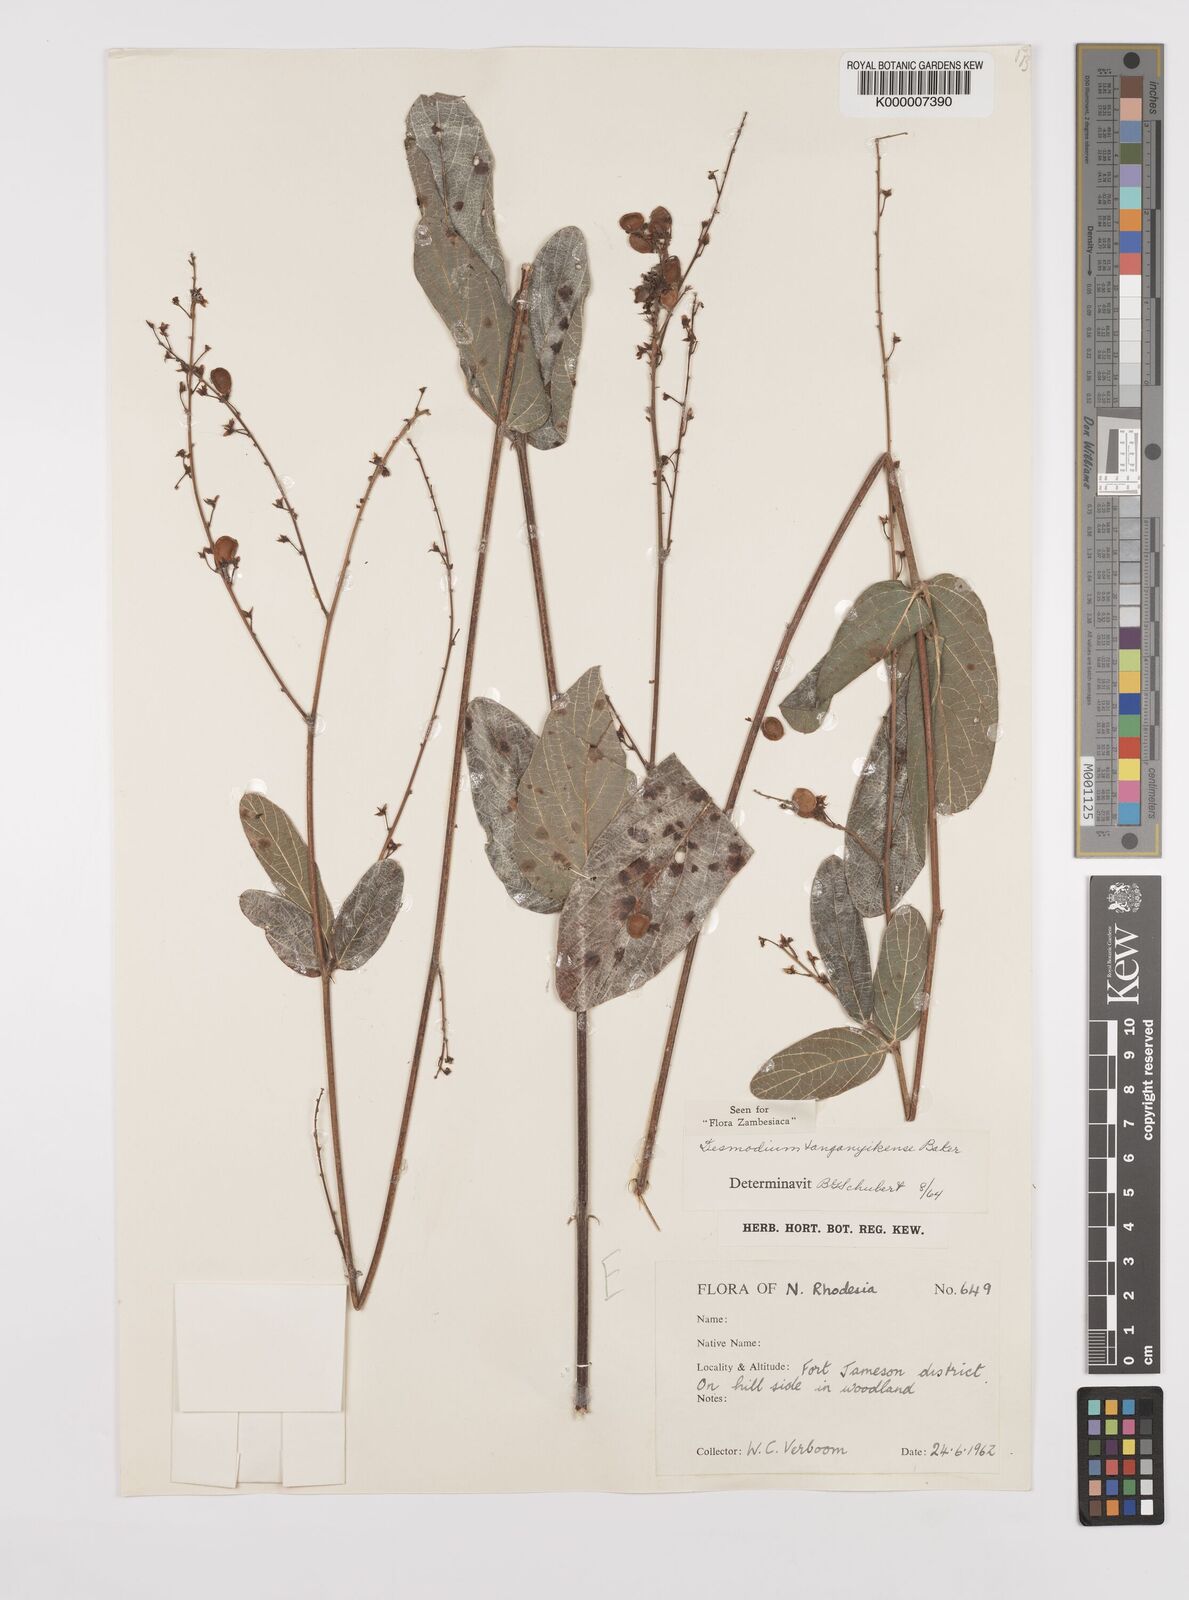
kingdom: Plantae
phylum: Tracheophyta
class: Magnoliopsida
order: Fabales
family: Fabaceae
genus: Pleurolobus
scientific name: Pleurolobus tanganyikensis
